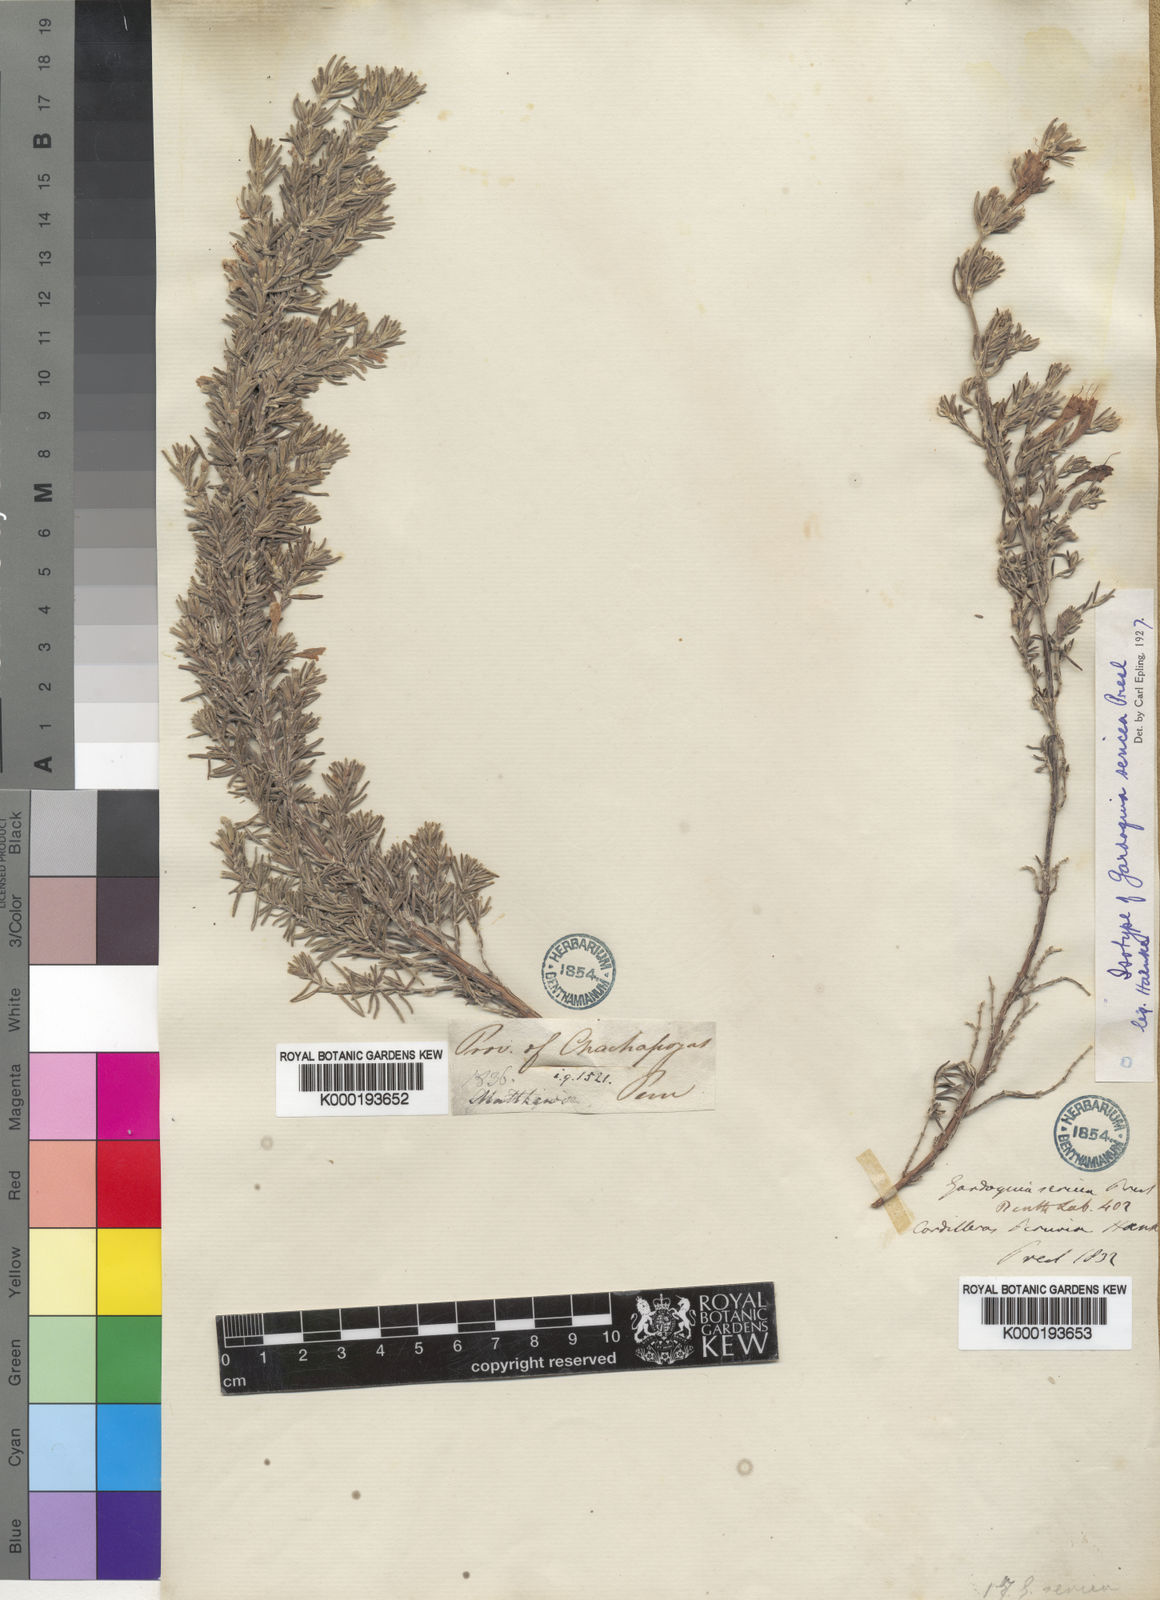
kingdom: Plantae
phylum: Tracheophyta
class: Magnoliopsida
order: Lamiales
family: Lamiaceae
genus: Clinopodium
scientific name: Clinopodium
